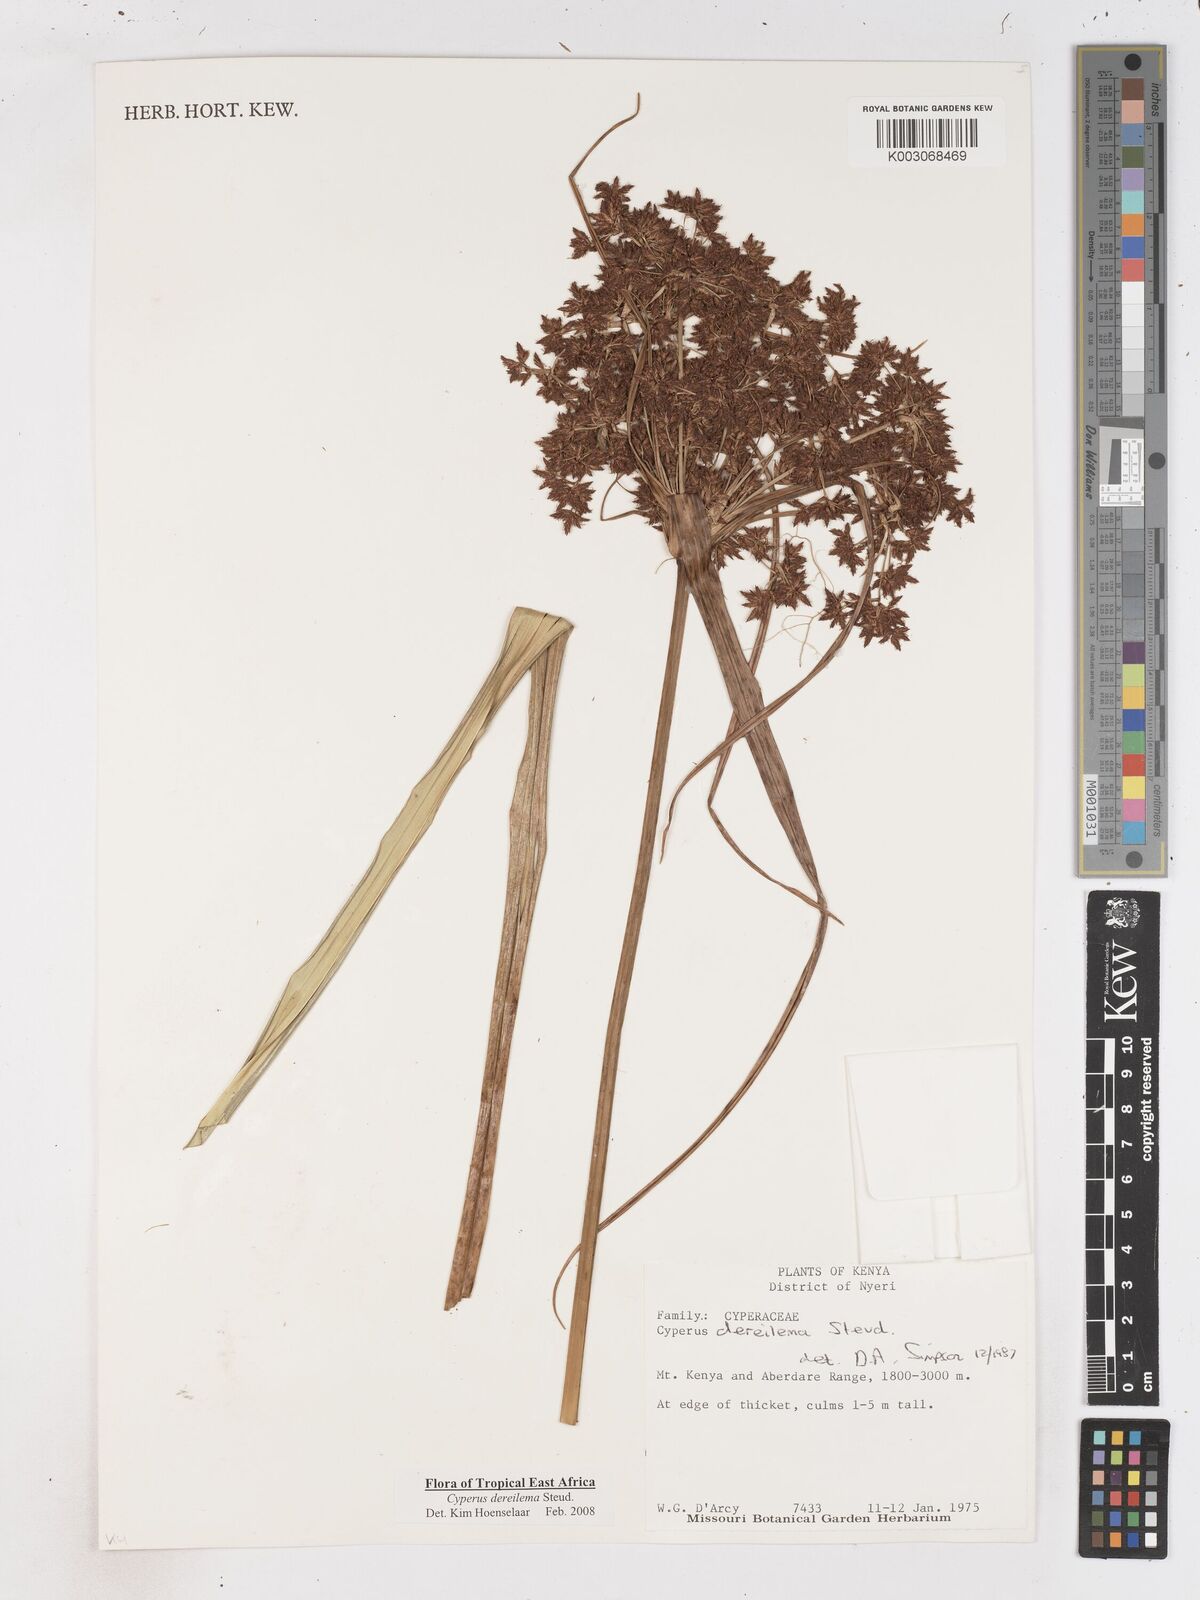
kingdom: Plantae
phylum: Tracheophyta
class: Liliopsida
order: Poales
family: Cyperaceae
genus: Cyperus
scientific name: Cyperus derreilema
